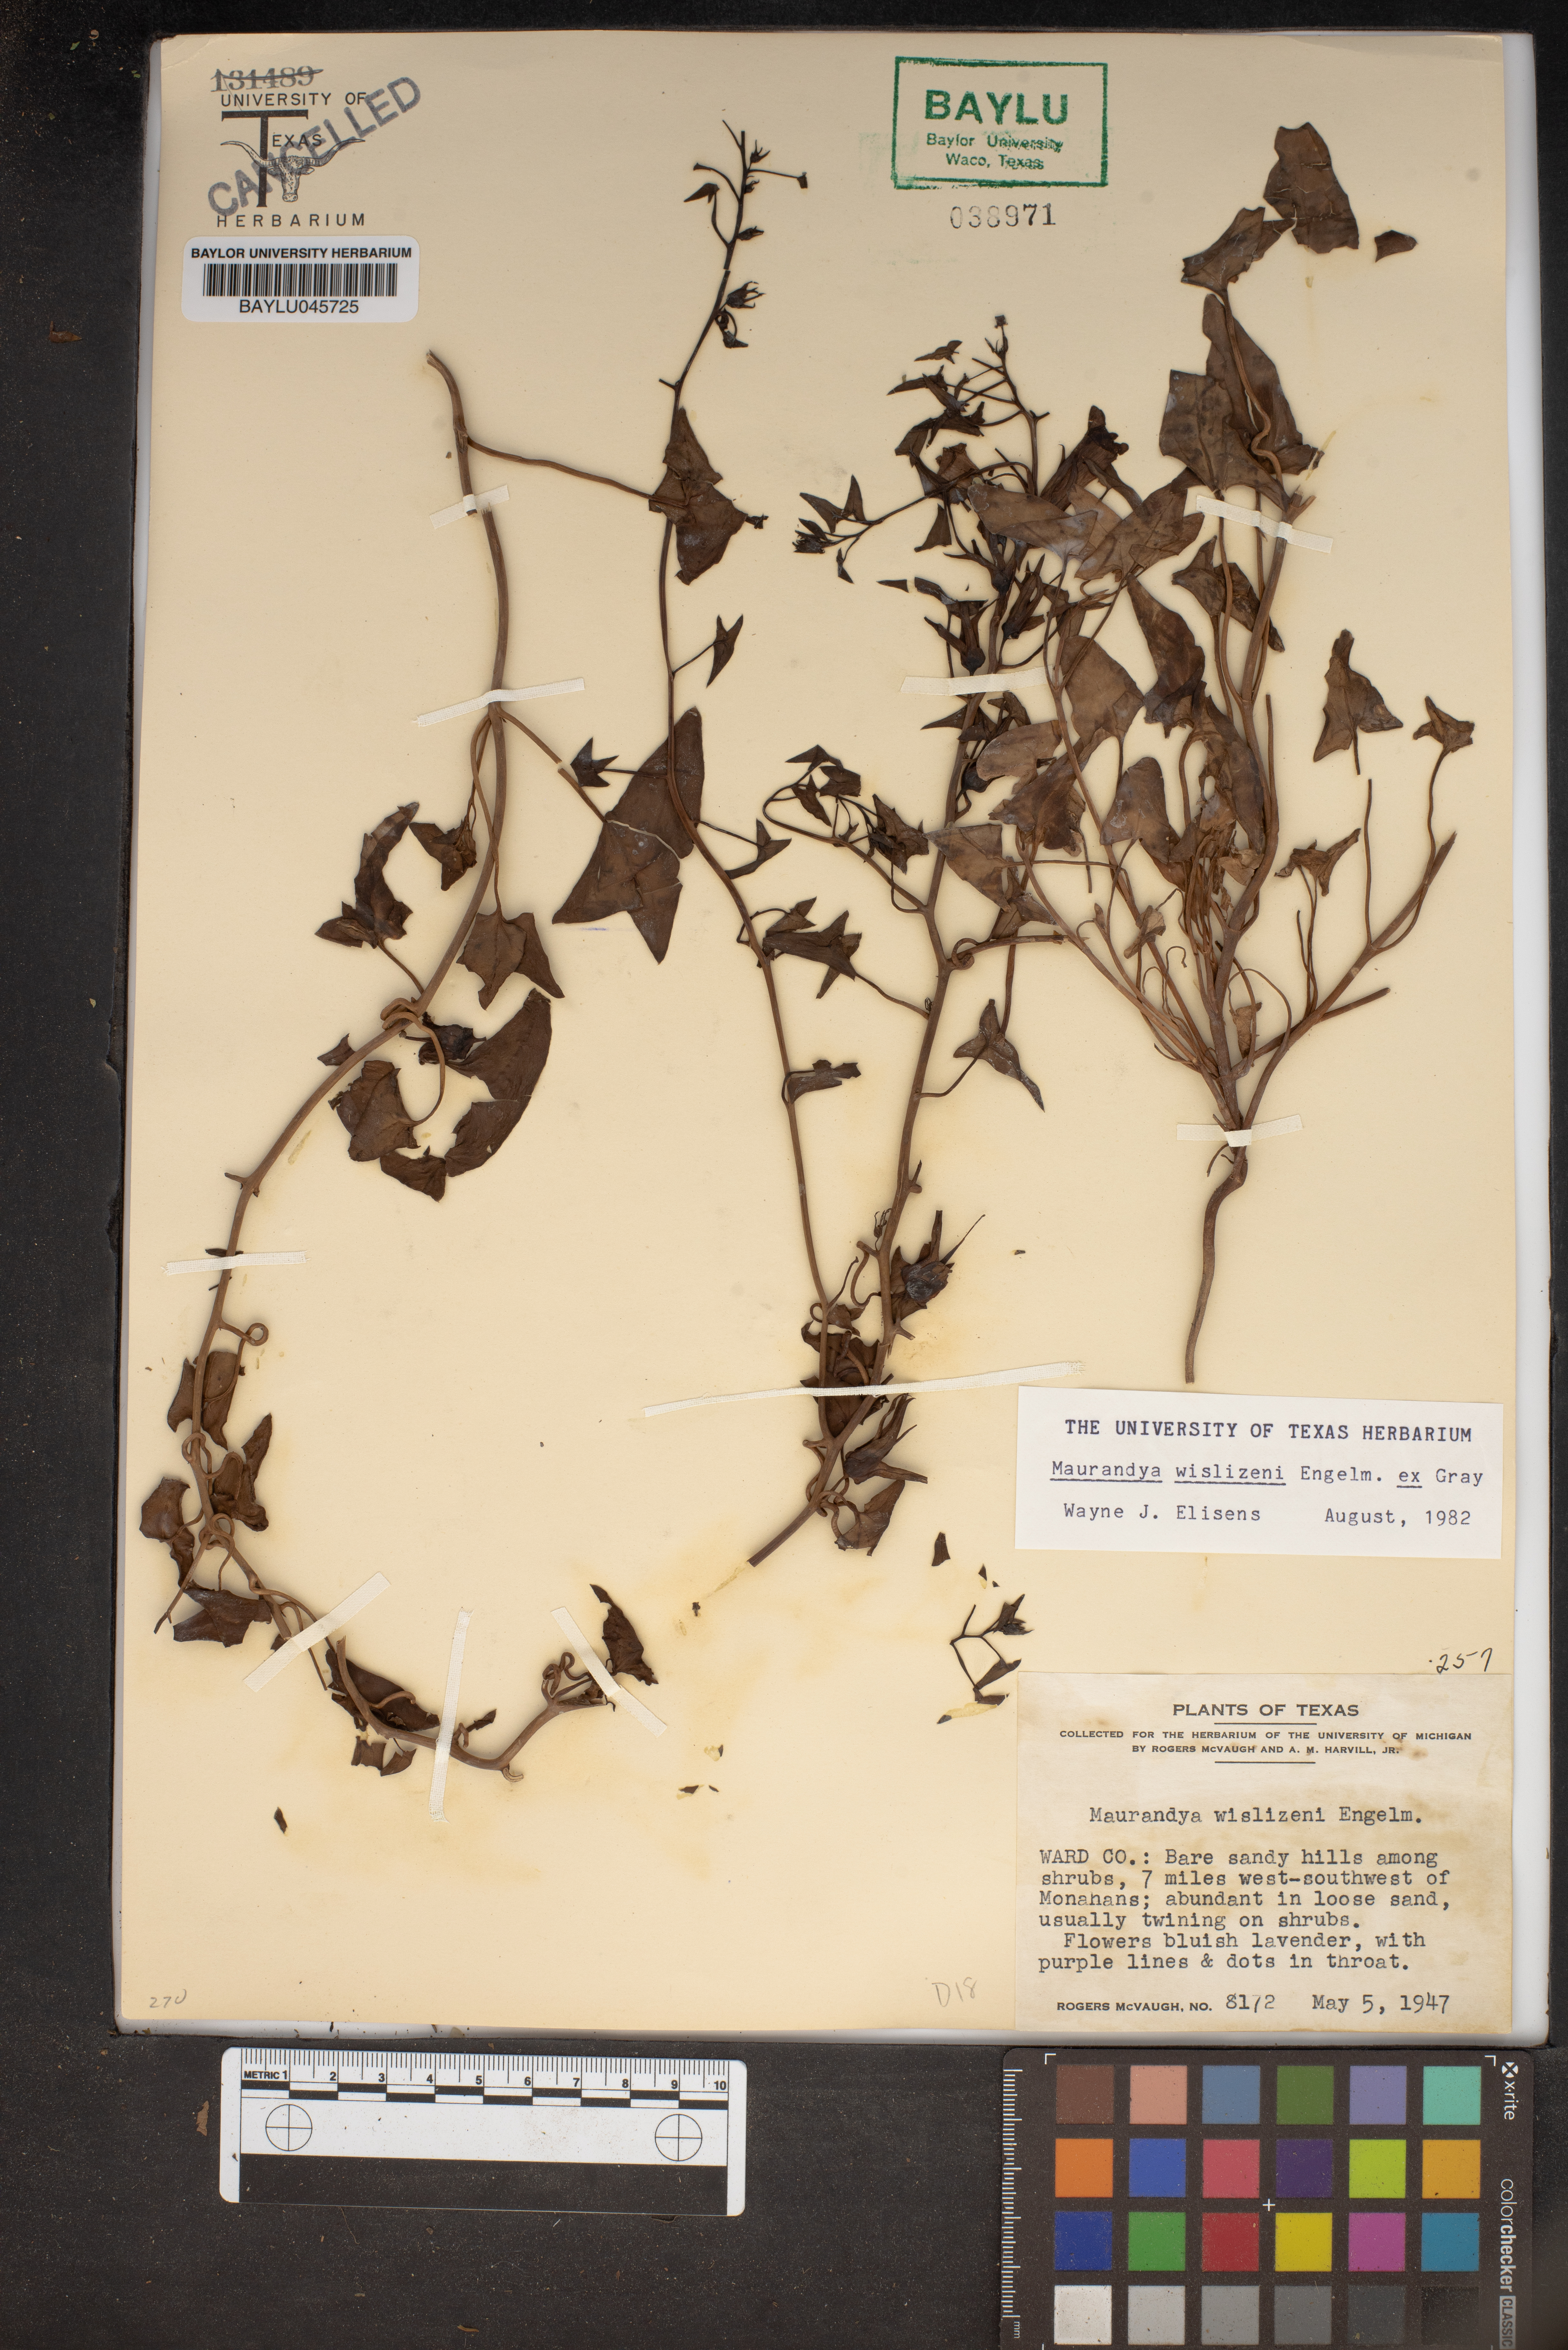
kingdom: Plantae
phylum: Tracheophyta
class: Magnoliopsida
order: Lamiales
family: Plantaginaceae
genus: Epixiphium
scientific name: Epixiphium wislizeni
